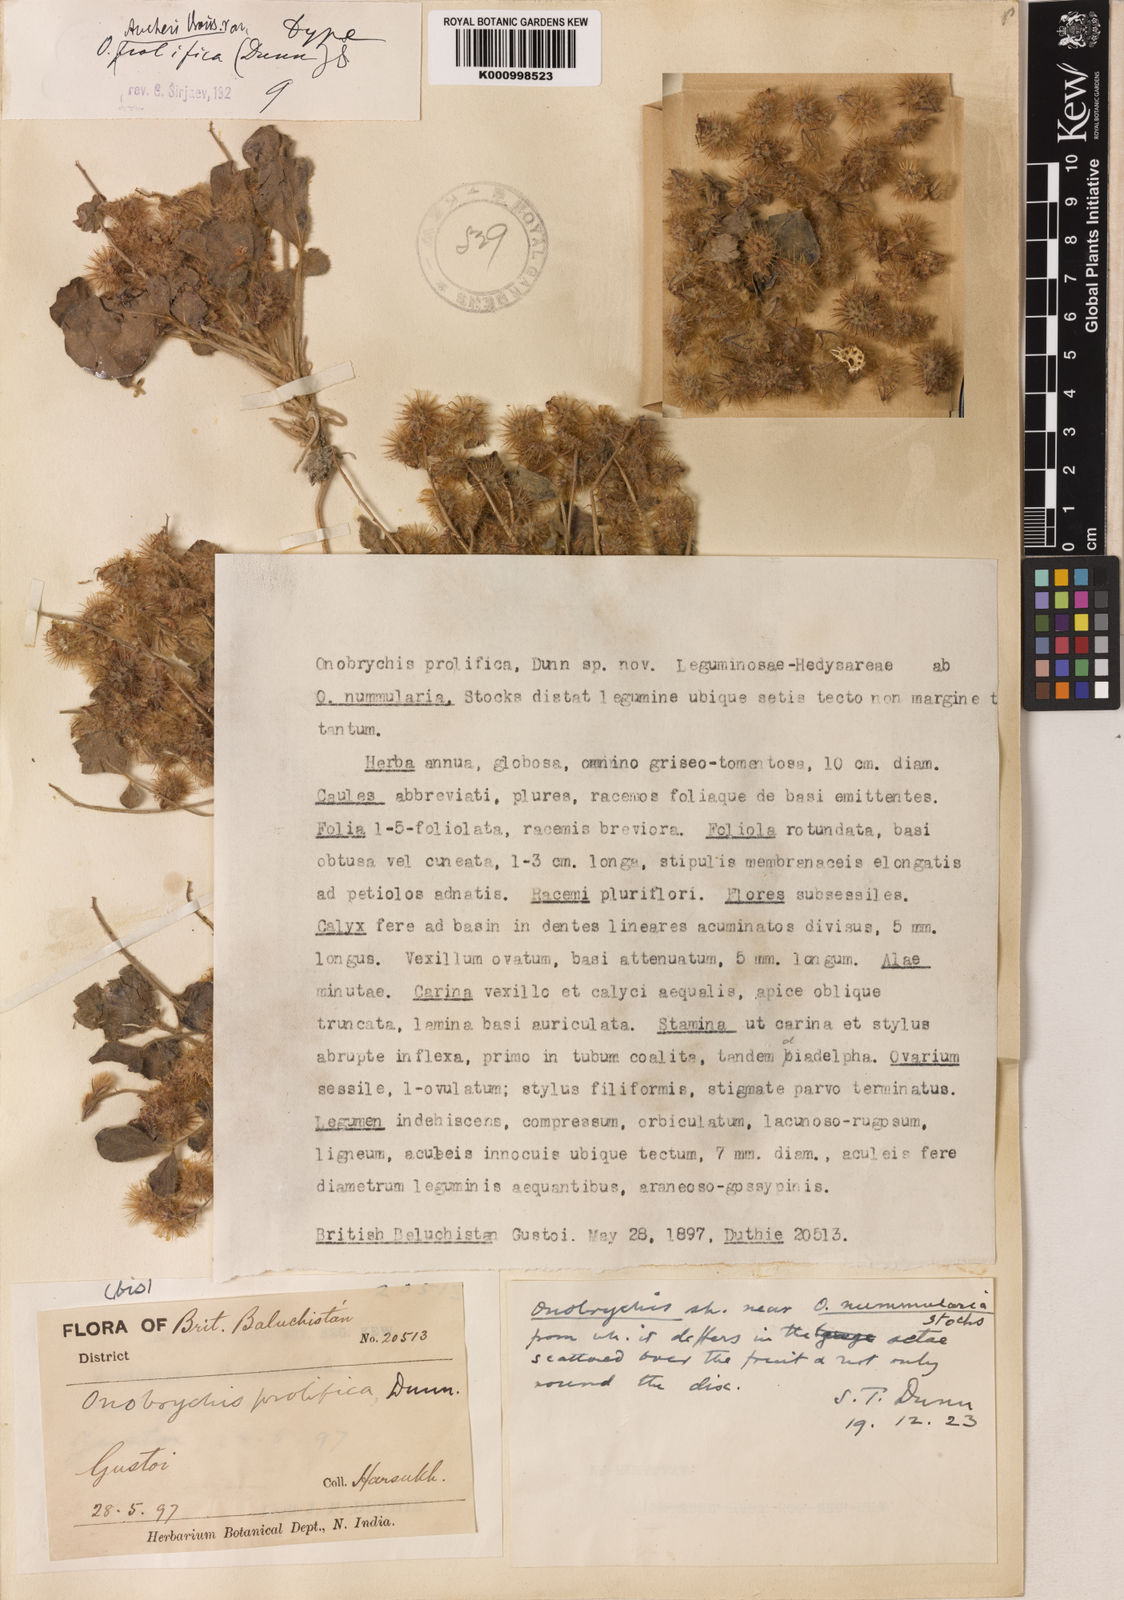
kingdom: Plantae
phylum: Tracheophyta
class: Magnoliopsida
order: Fabales
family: Fabaceae
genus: Onobrychis
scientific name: Onobrychis aucheri
